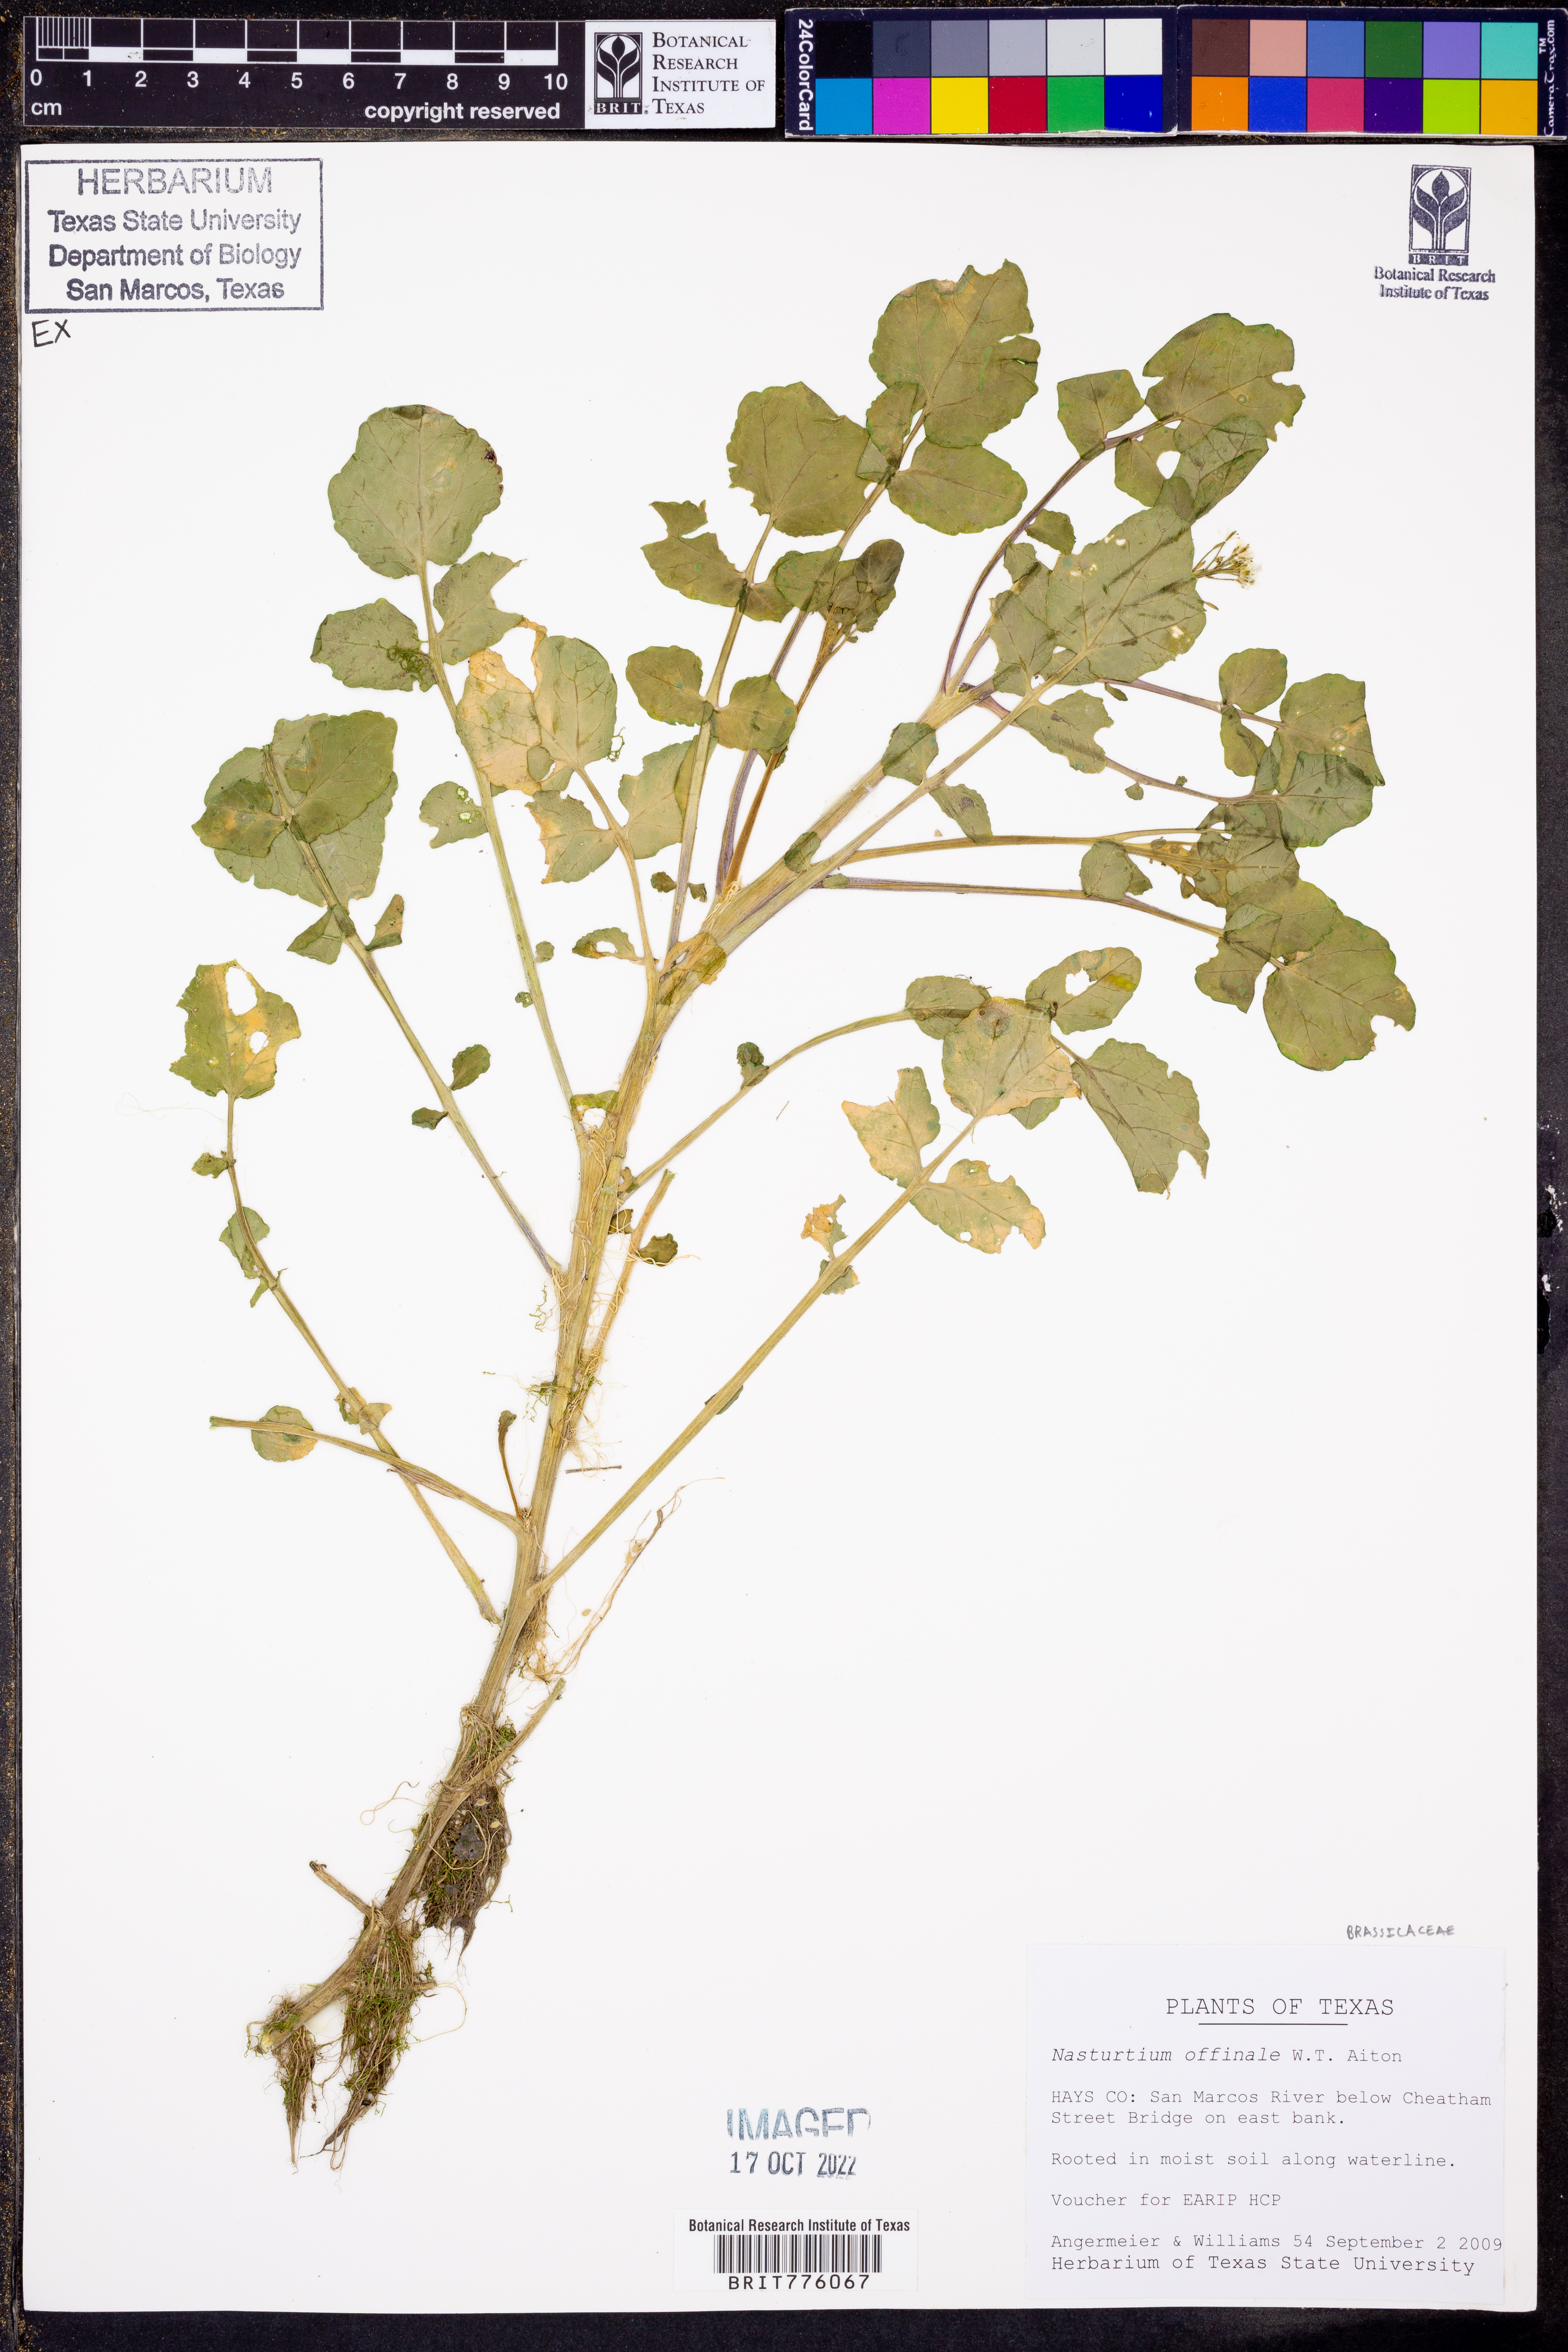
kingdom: Plantae
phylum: Tracheophyta
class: Magnoliopsida
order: Brassicales
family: Brassicaceae
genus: Nasturtium
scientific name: Nasturtium officinale
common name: Watercress
